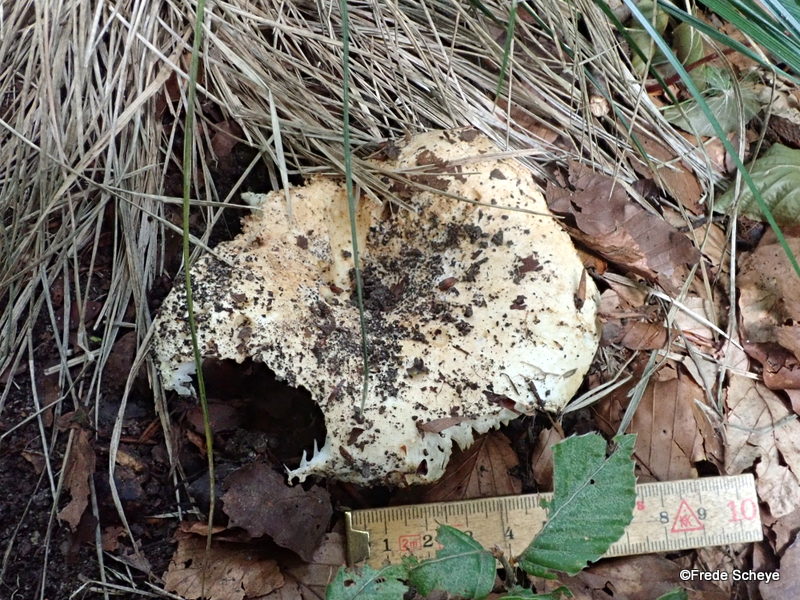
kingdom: Fungi
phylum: Basidiomycota
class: Agaricomycetes
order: Russulales
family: Russulaceae
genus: Russula
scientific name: Russula delica
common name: almindelig tragt-skørhat
